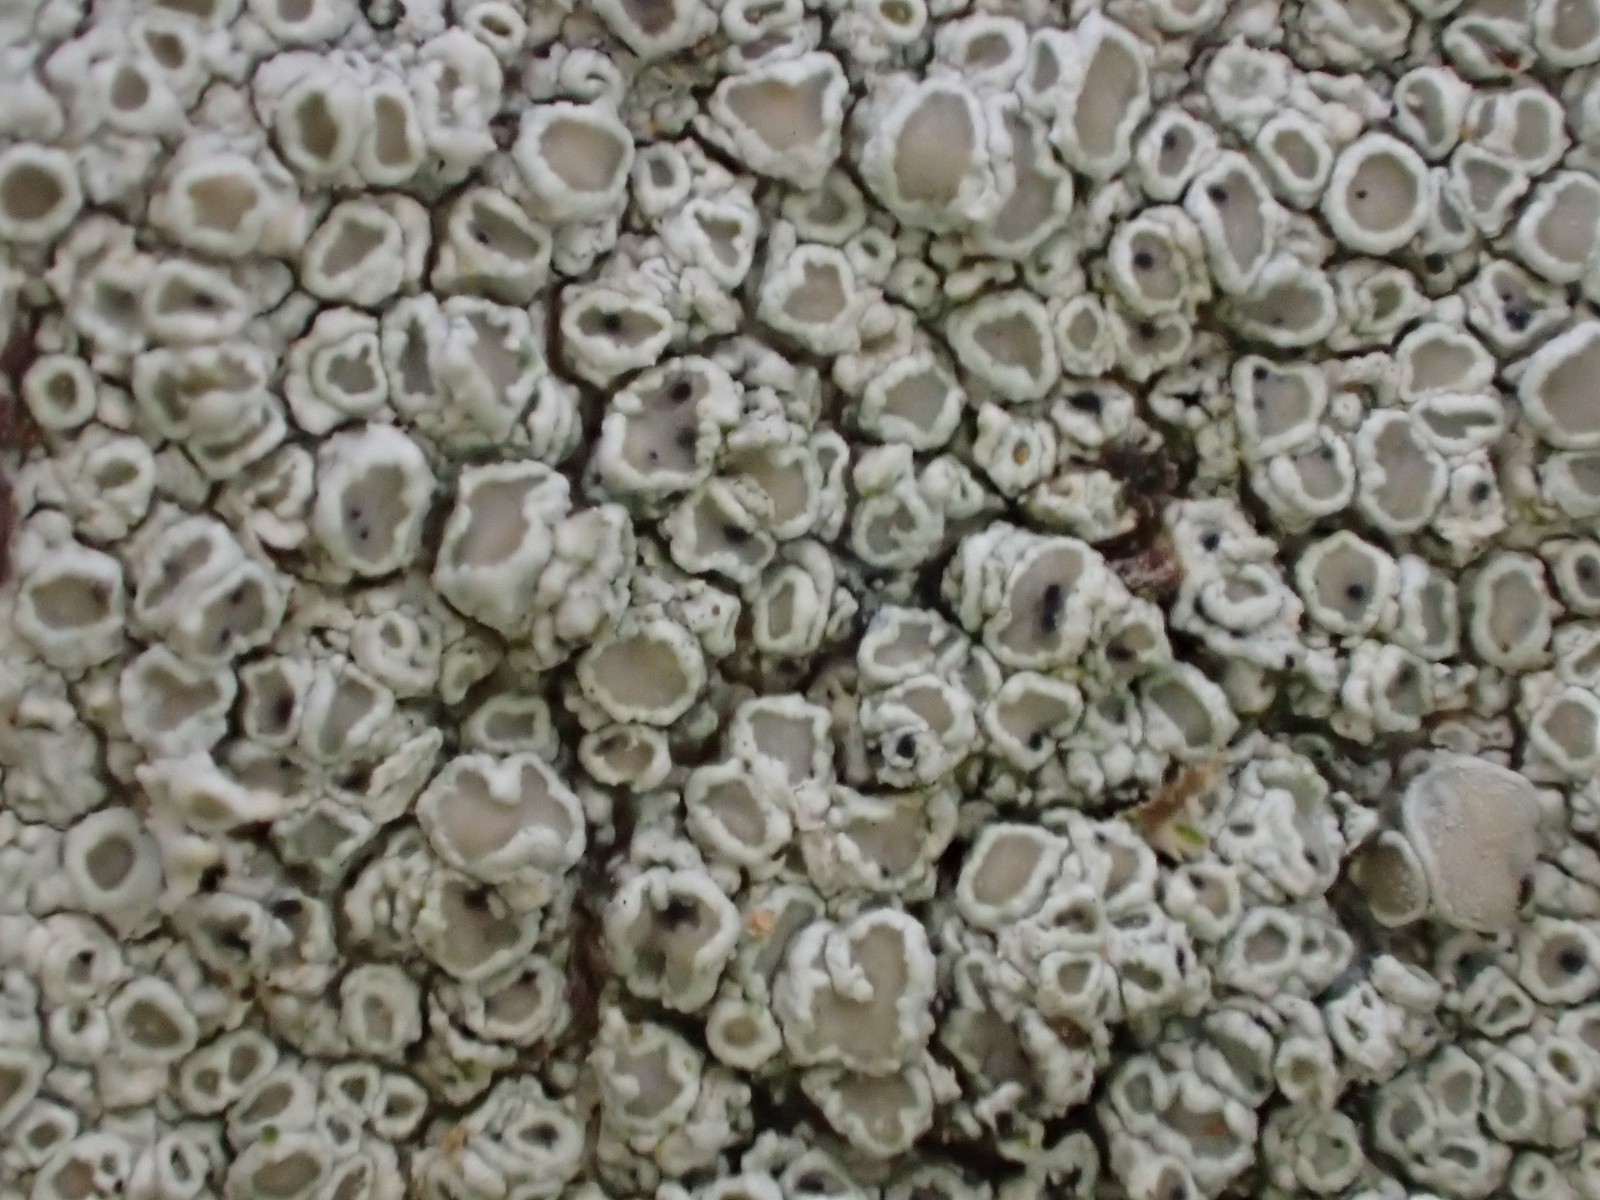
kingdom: Fungi
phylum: Ascomycota
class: Lecanoromycetes
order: Lecanorales
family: Lecanoraceae
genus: Lecanora
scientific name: Lecanora chlarotera
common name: brun kantskivelav
